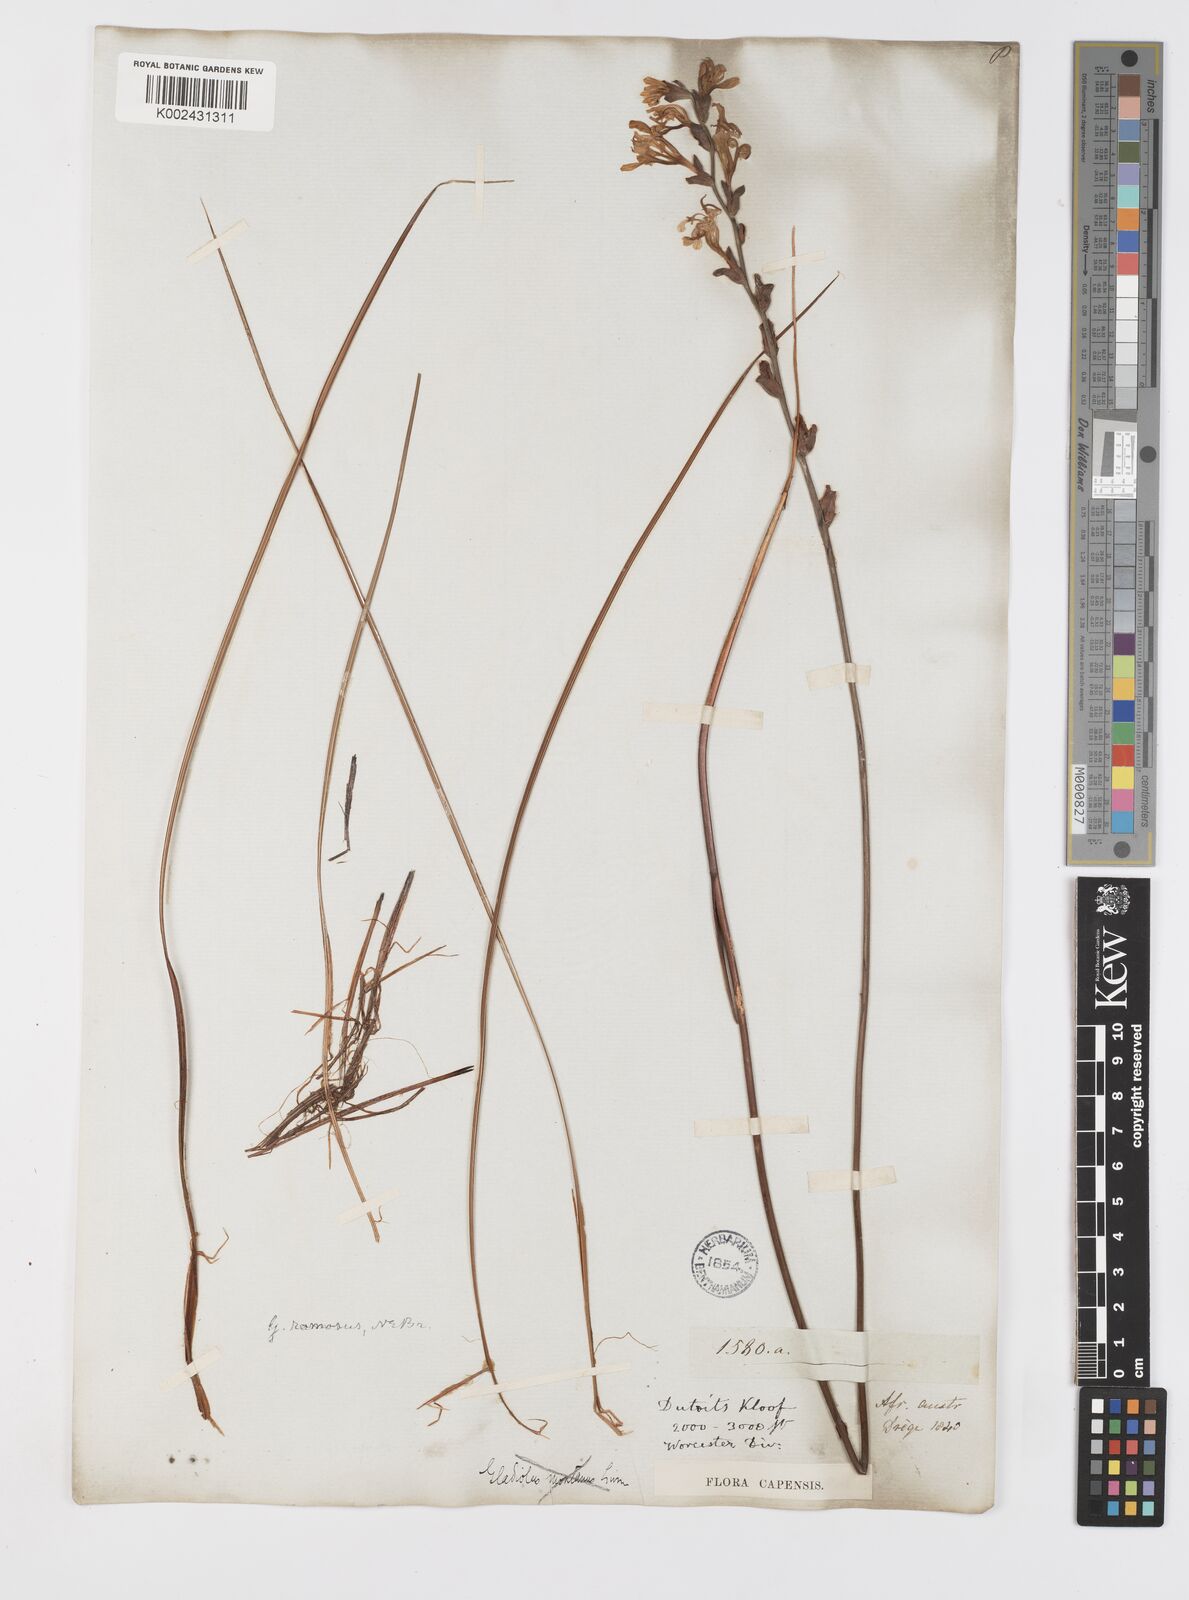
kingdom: Plantae
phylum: Tracheophyta
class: Liliopsida
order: Asparagales
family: Iridaceae
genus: Tritoniopsis
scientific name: Tritoniopsis lata
